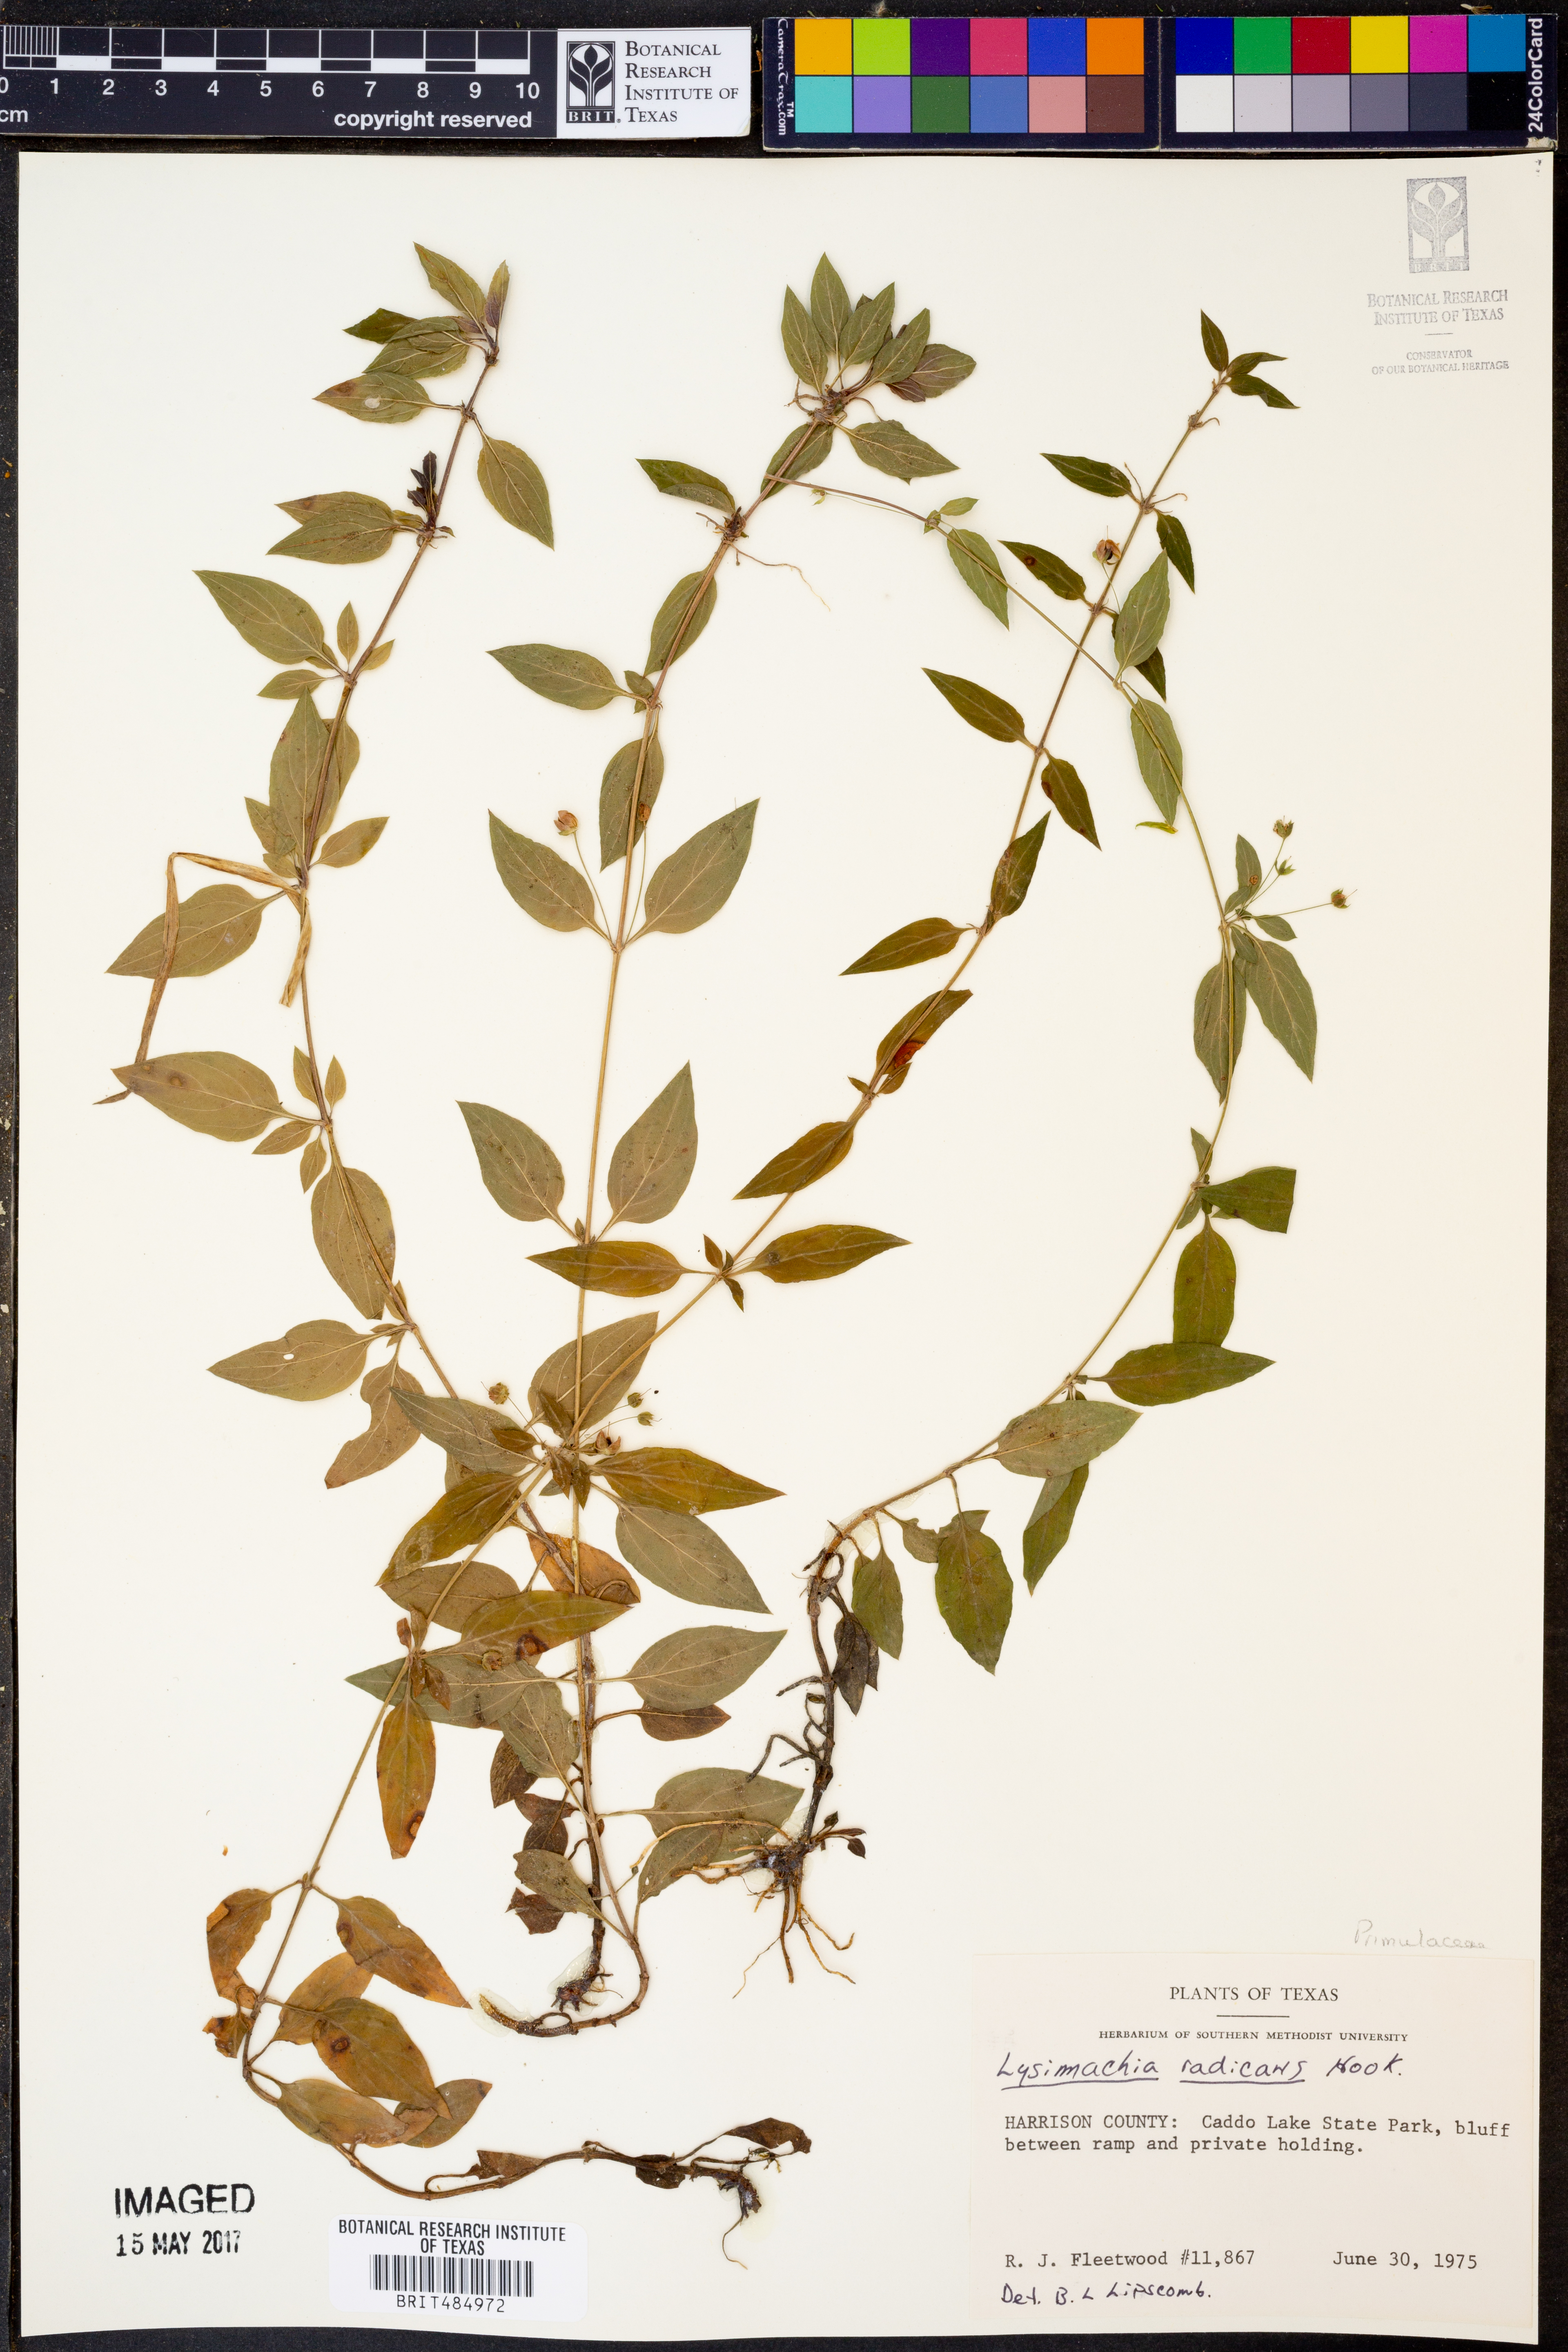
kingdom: Plantae
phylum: Tracheophyta
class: Magnoliopsida
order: Ericales
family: Primulaceae
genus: Lysimachia
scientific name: Lysimachia radicans
